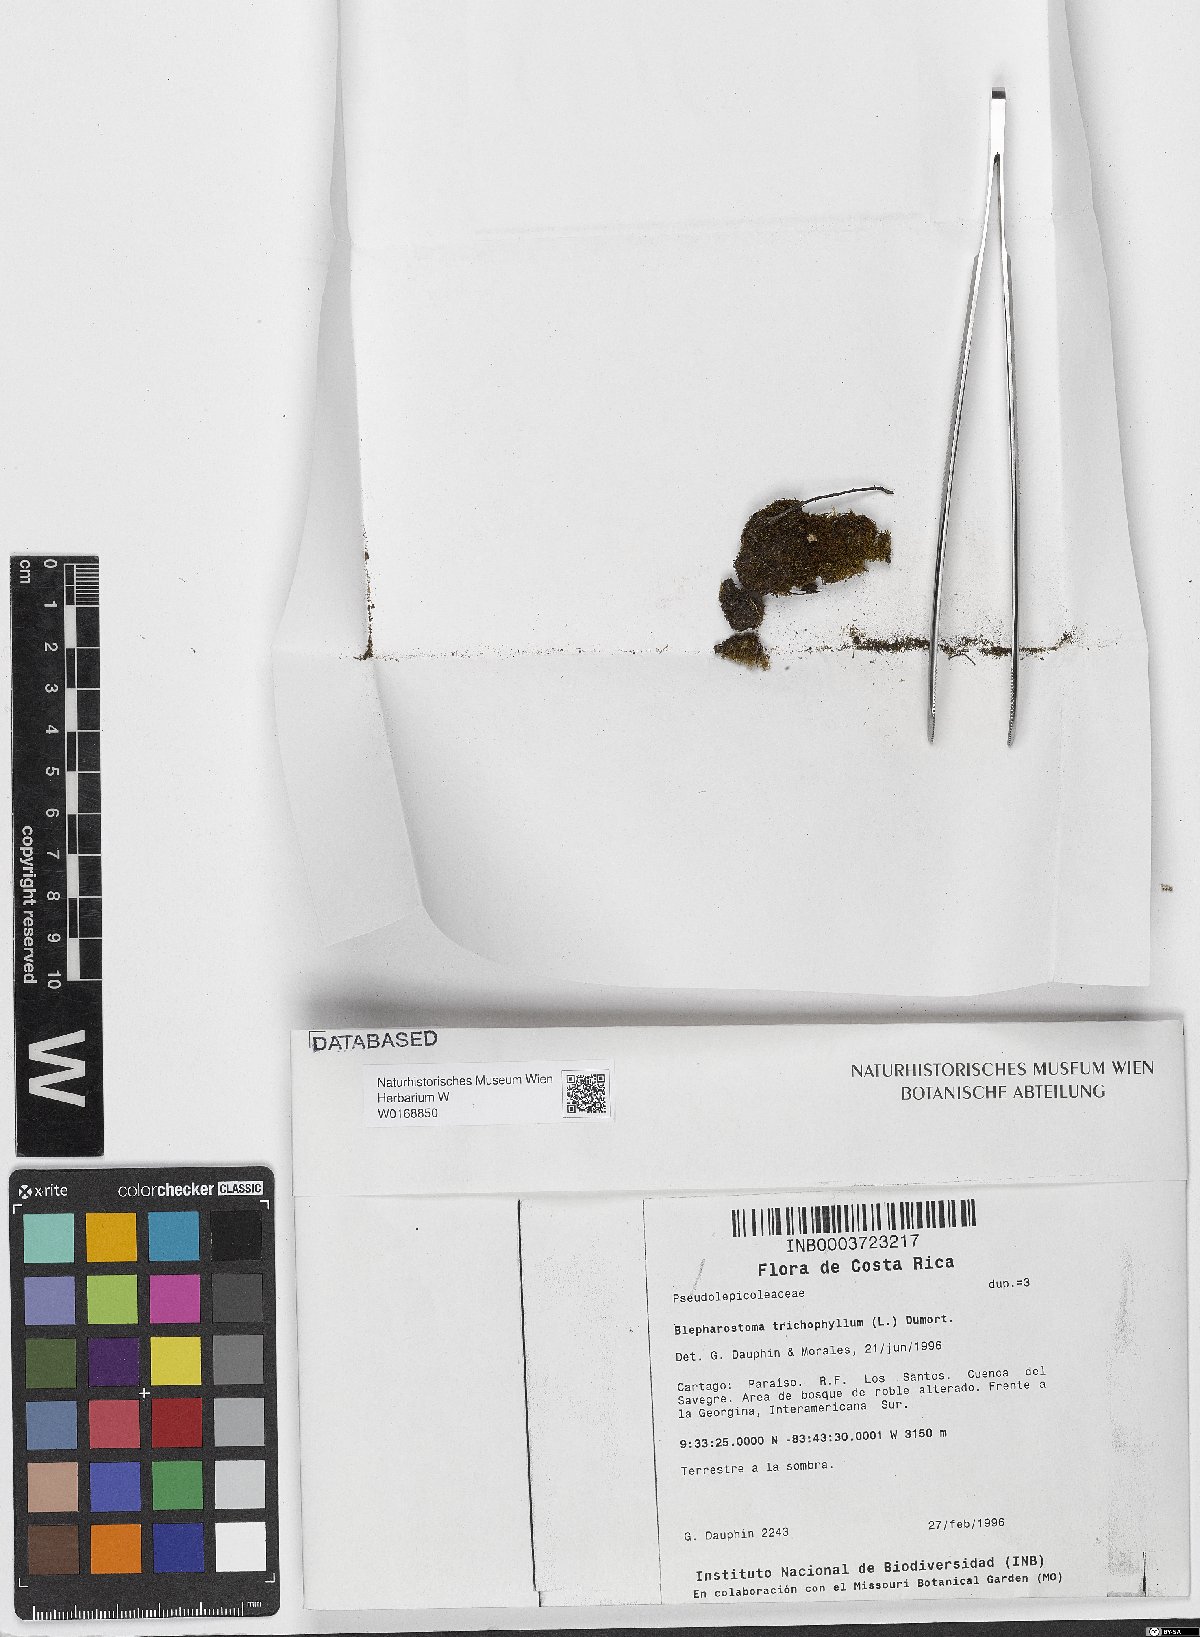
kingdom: Plantae
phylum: Marchantiophyta
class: Jungermanniopsida
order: Jungermanniales
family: Blepharostomataceae
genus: Blepharostoma
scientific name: Blepharostoma trichophyllum
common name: Hairy threadwort
